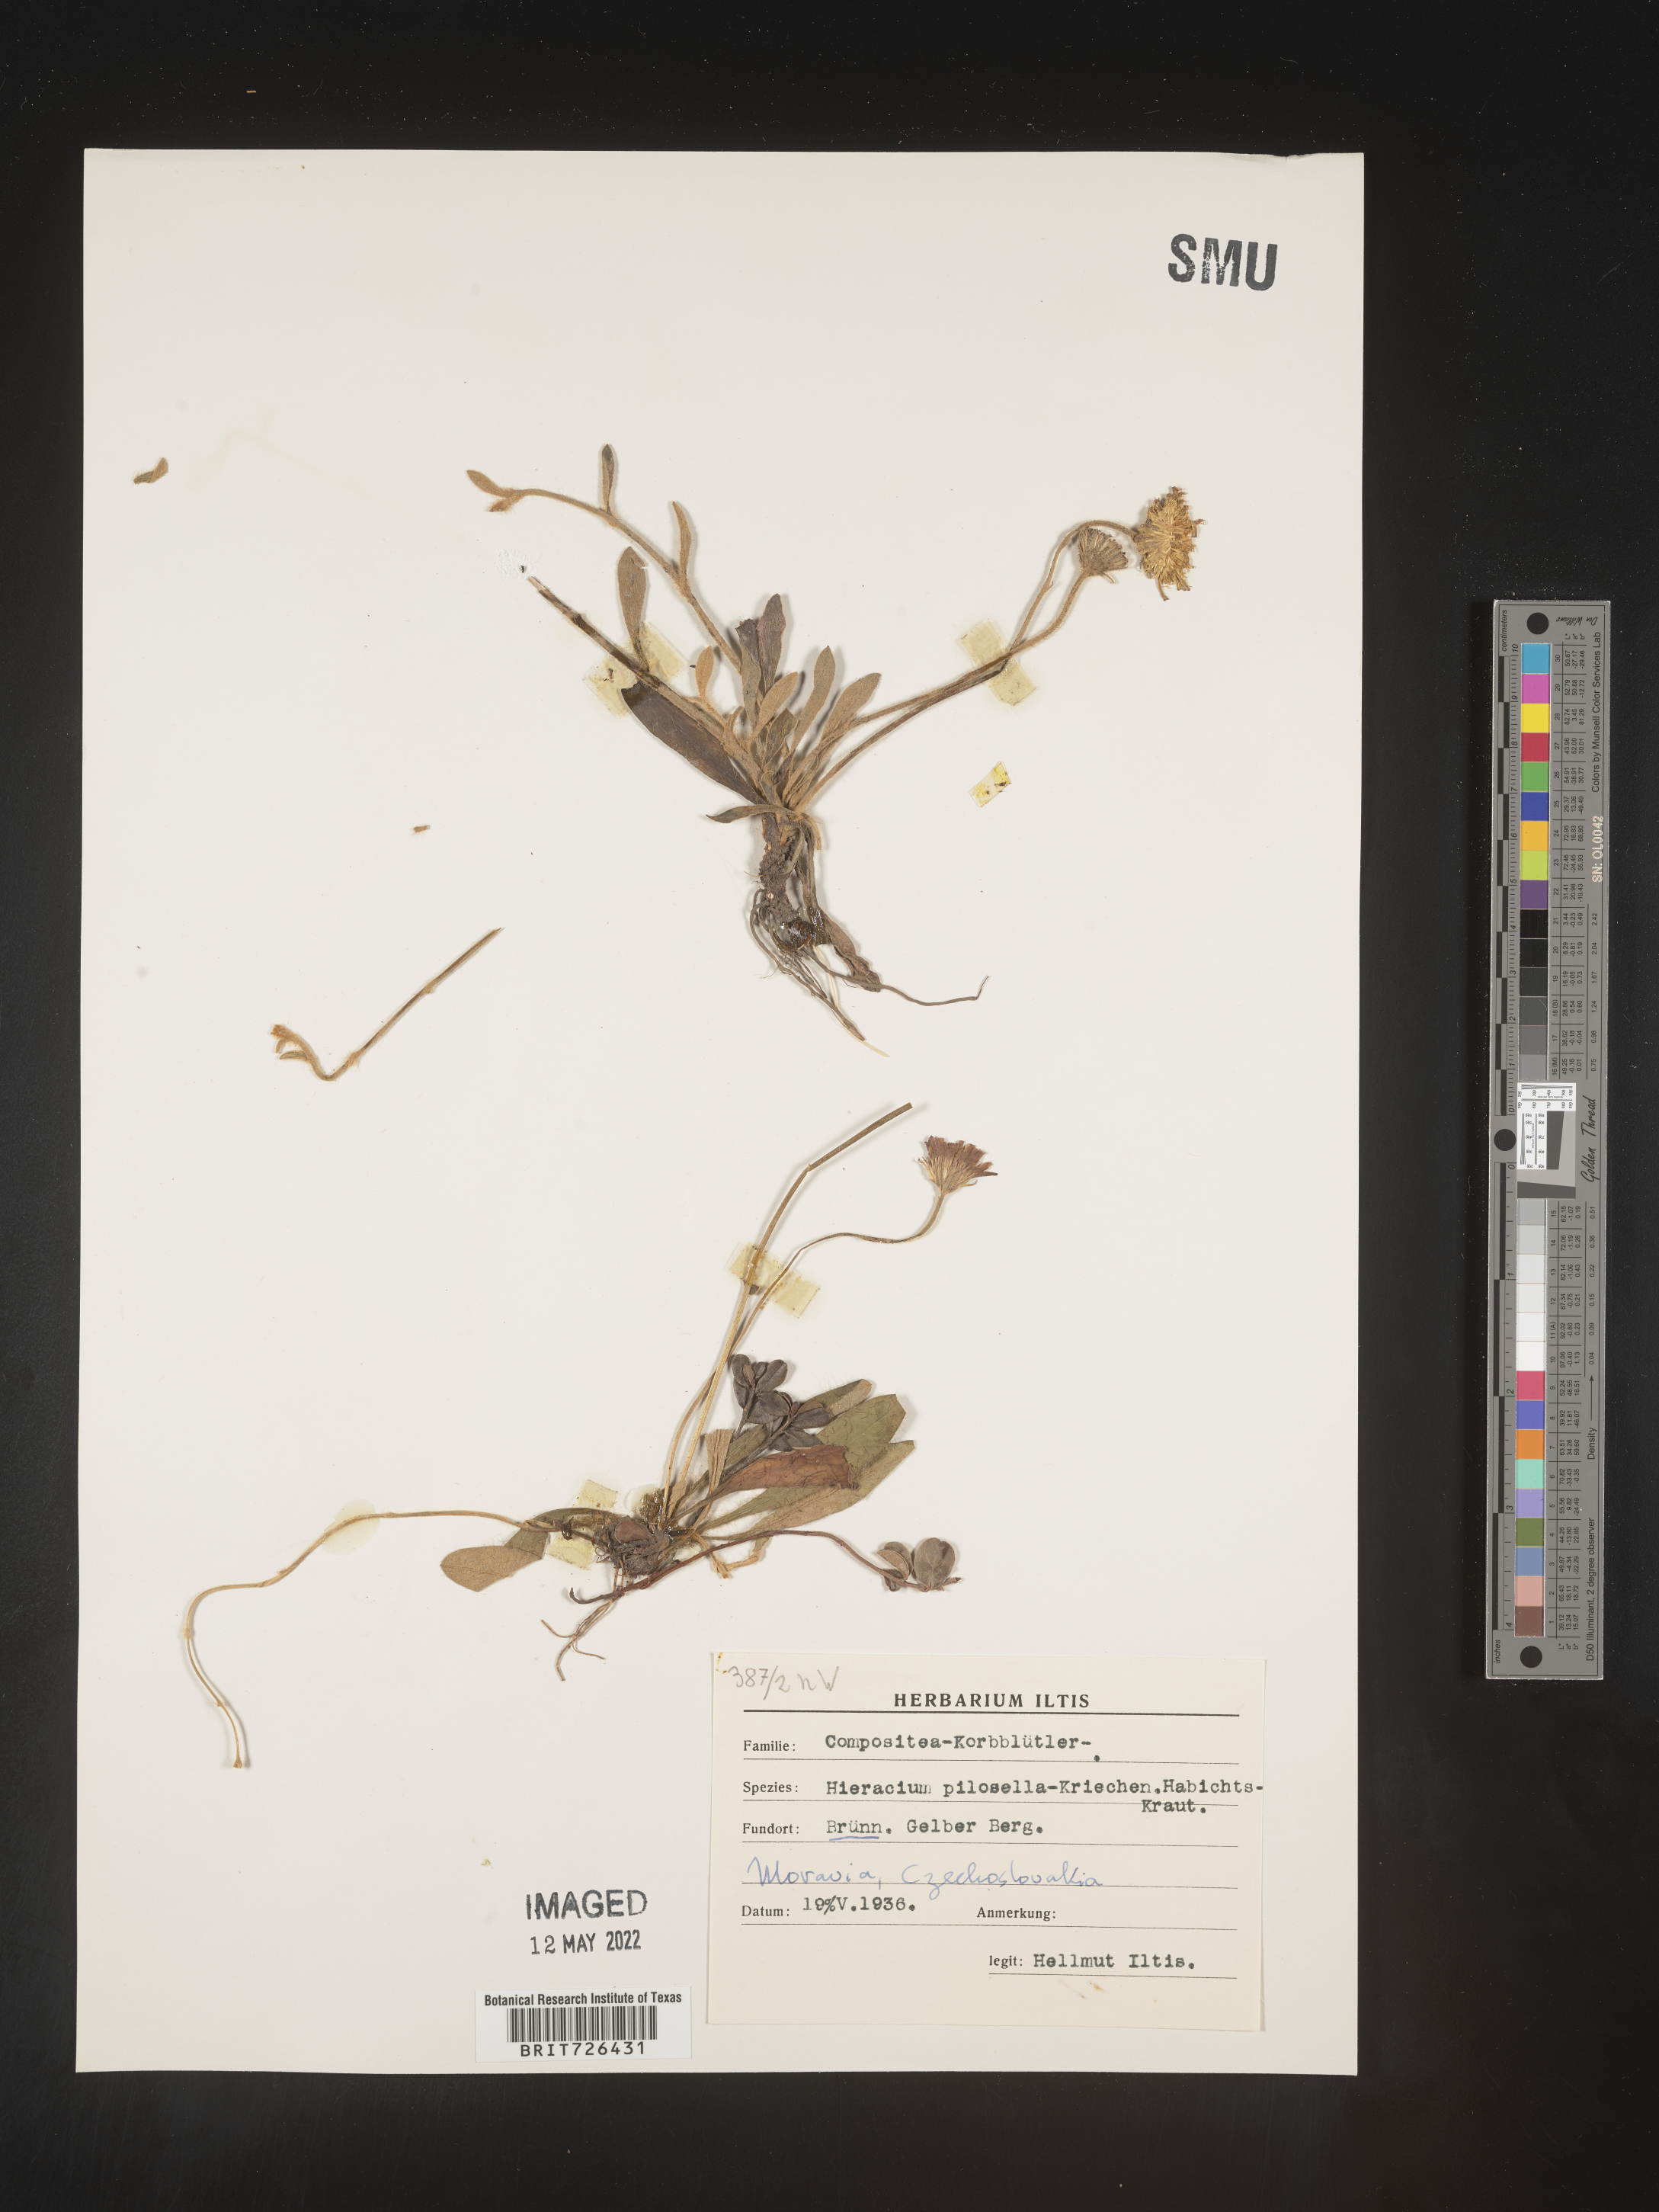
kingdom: Plantae
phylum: Tracheophyta
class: Magnoliopsida
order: Asterales
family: Asteraceae
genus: Hieracium
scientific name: Hieracium
